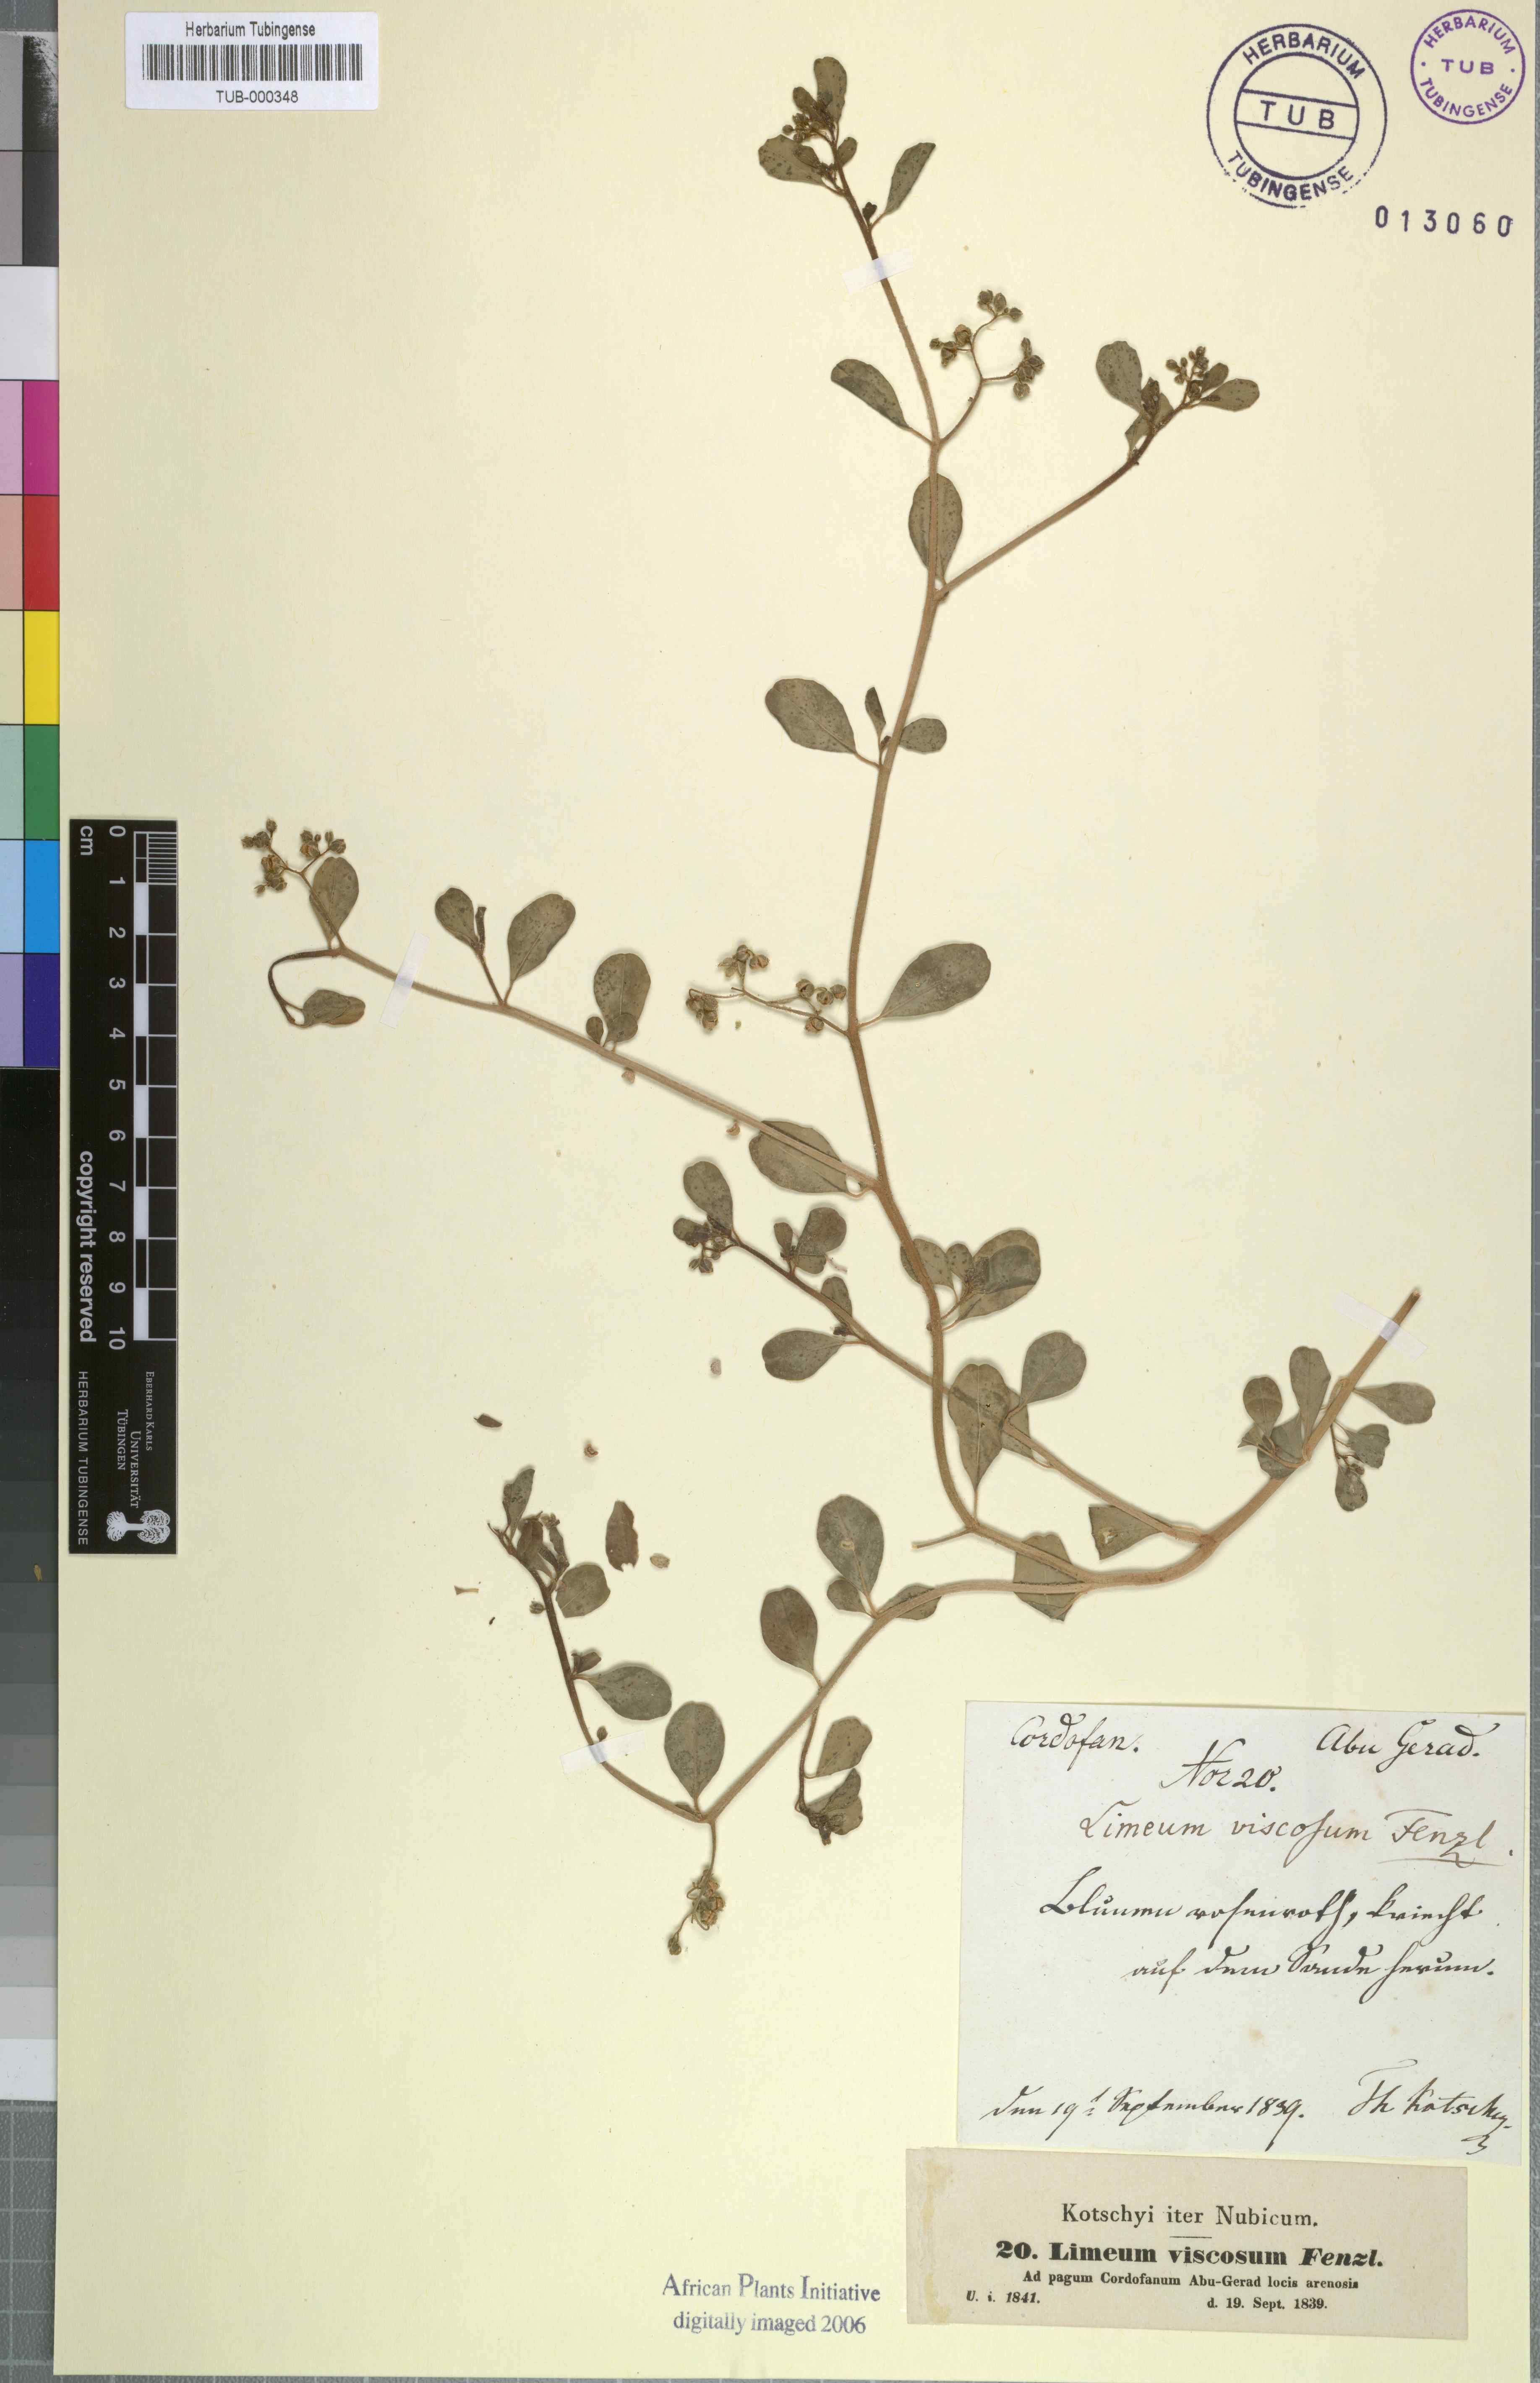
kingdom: Plantae
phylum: Tracheophyta
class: Magnoliopsida
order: Caryophyllales
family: Limeaceae
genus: Limeum
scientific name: Limeum viscosum
